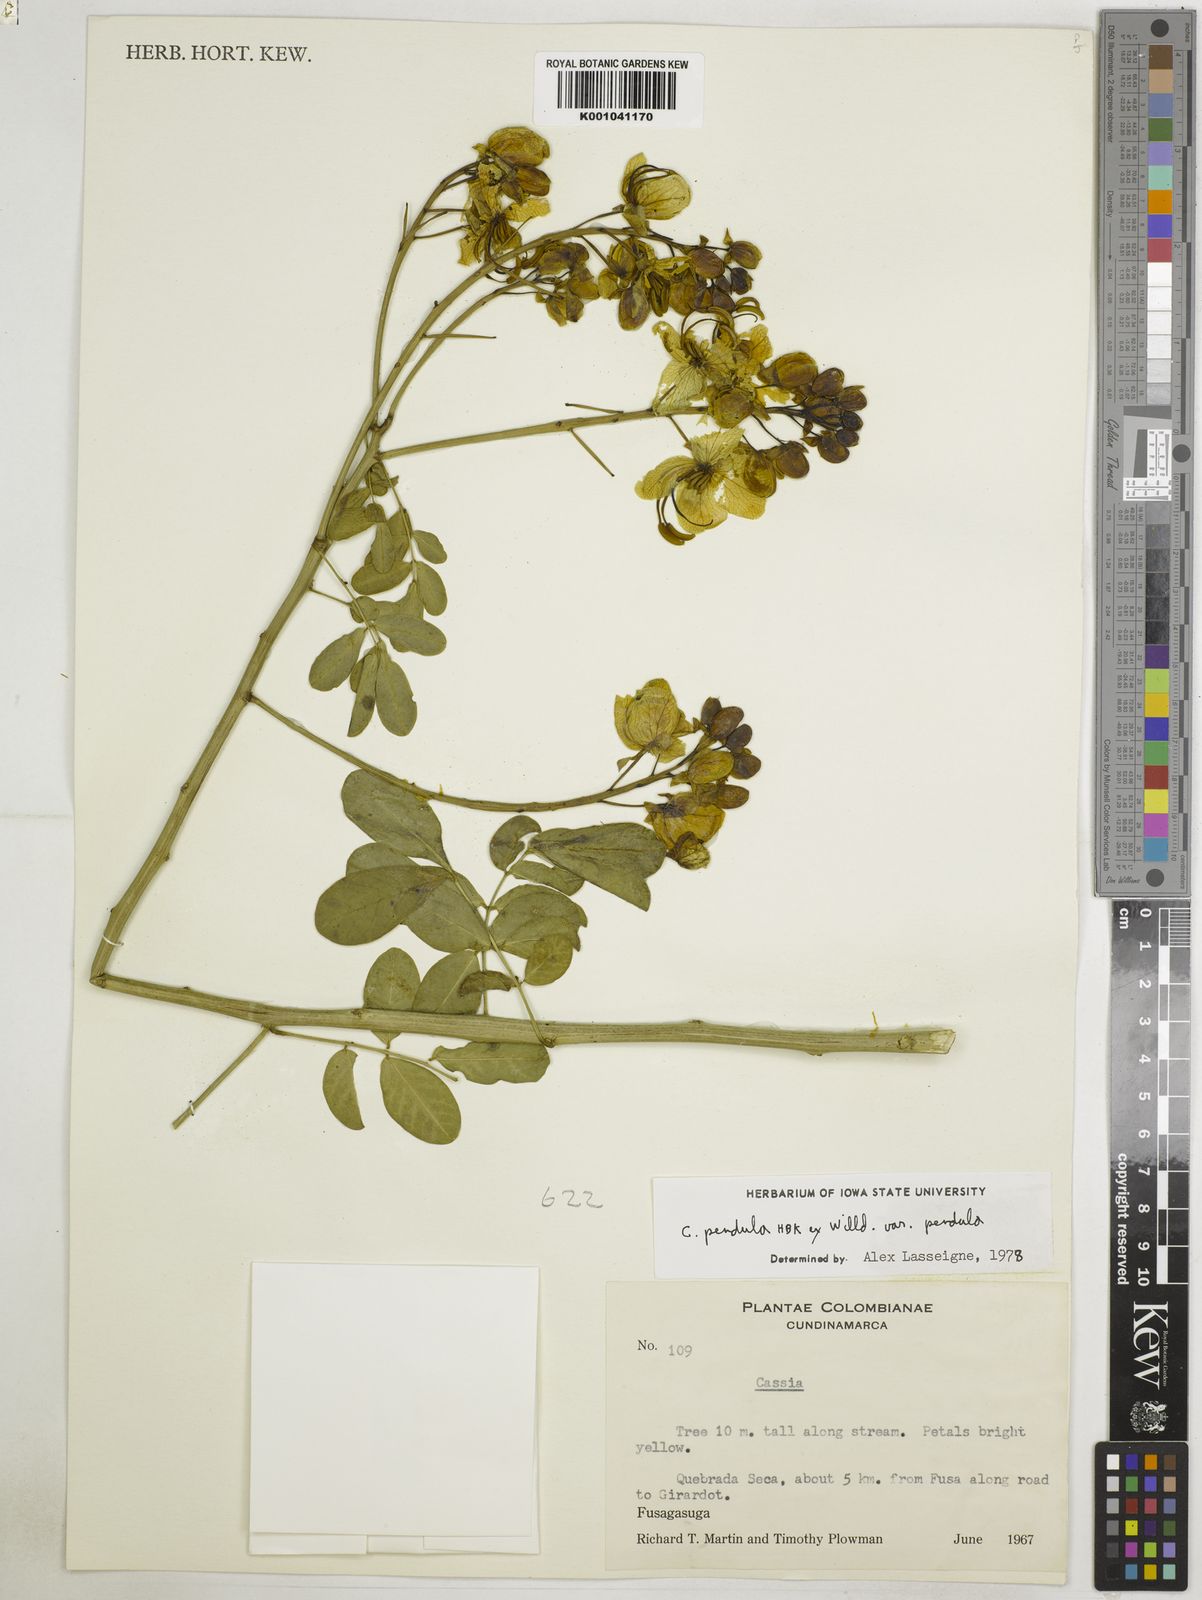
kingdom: Plantae
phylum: Tracheophyta
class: Magnoliopsida
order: Fabales
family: Fabaceae
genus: Senna
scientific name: Senna pendula
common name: Easter cassia
